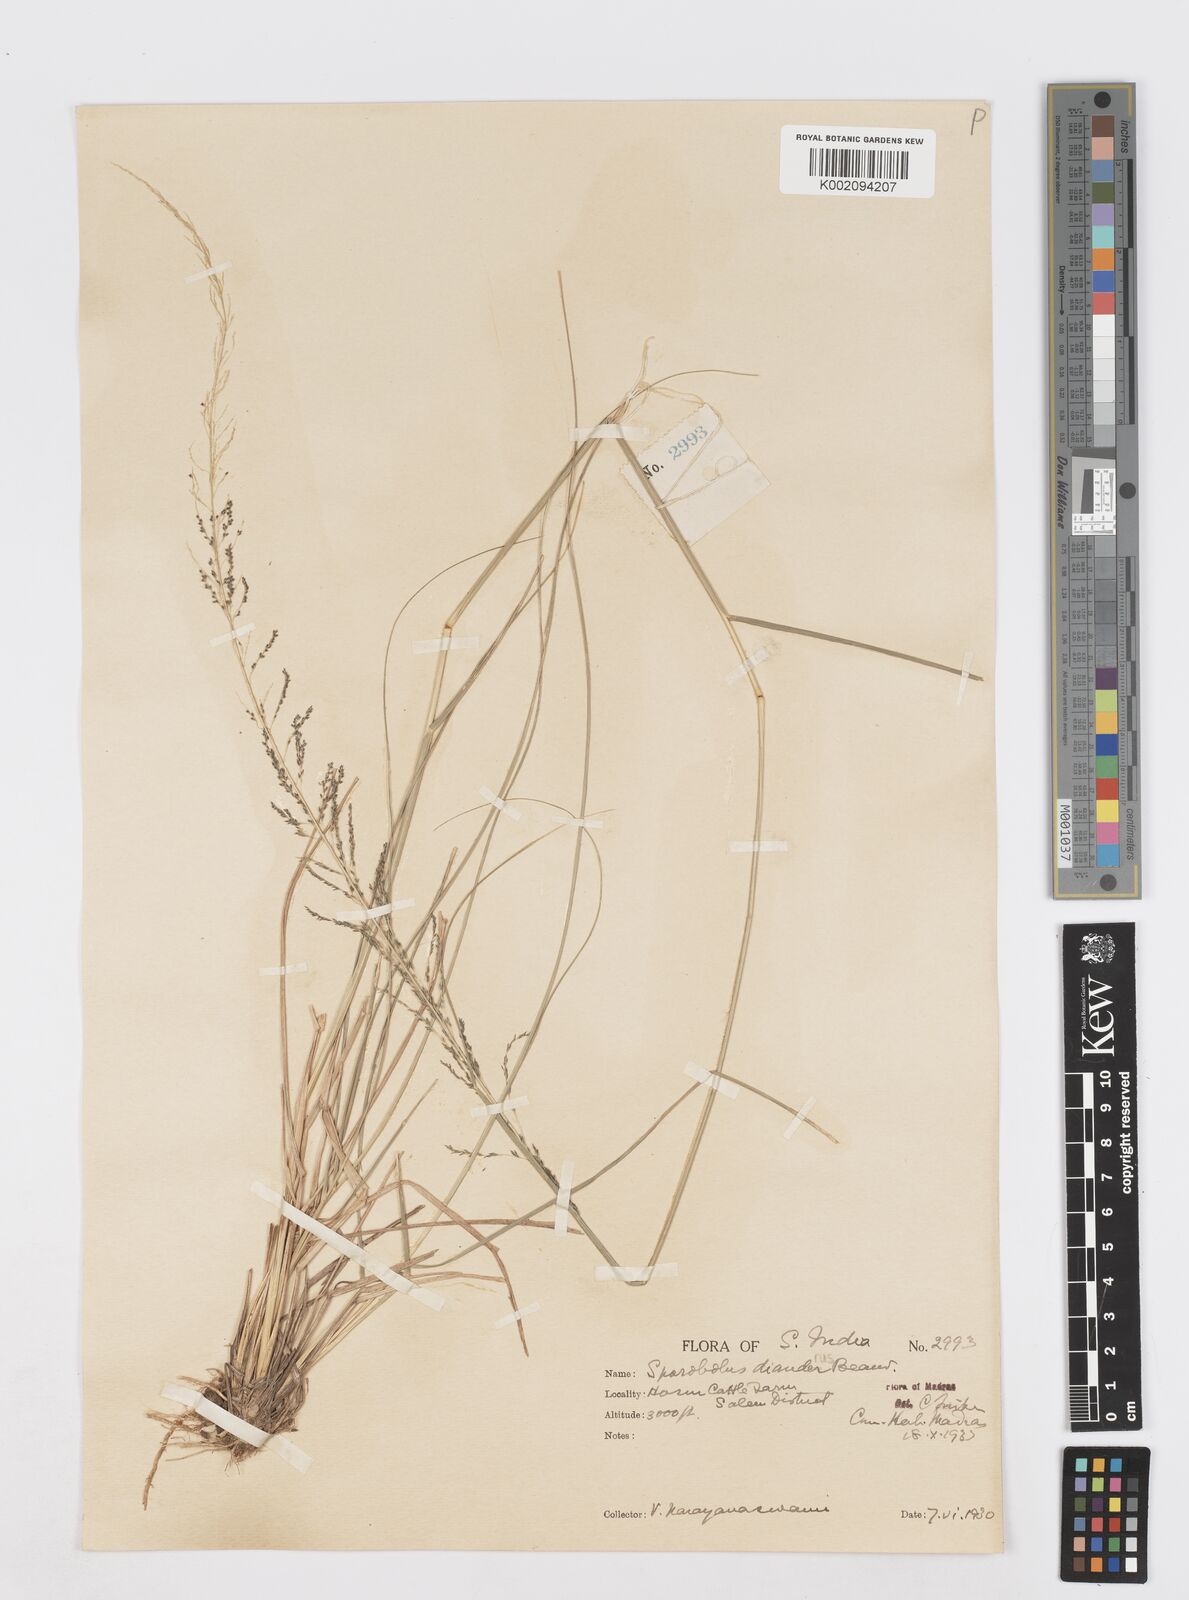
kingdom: Plantae
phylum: Tracheophyta
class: Liliopsida
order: Poales
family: Poaceae
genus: Sporobolus
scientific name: Sporobolus diandrus
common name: Tussock dropseed
